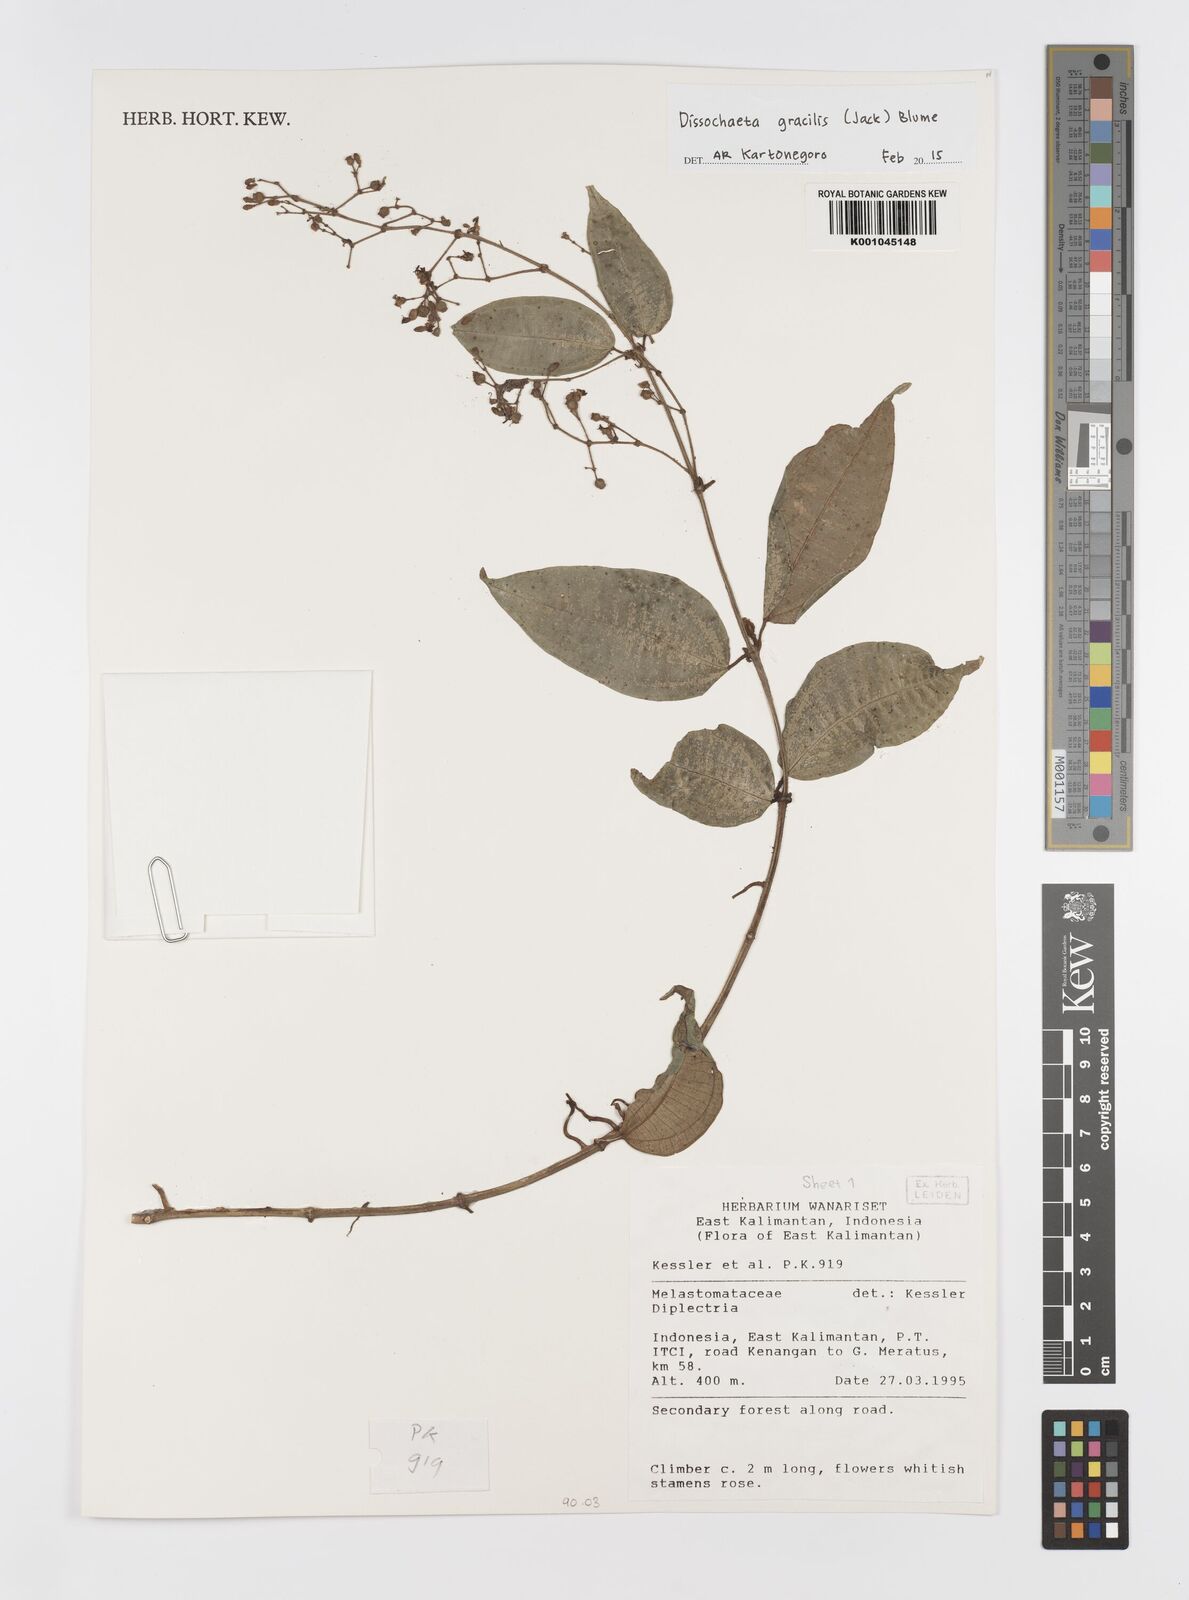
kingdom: Plantae
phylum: Tracheophyta
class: Magnoliopsida
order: Myrtales
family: Melastomataceae
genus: Dissochaeta
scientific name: Dissochaeta gracilis
